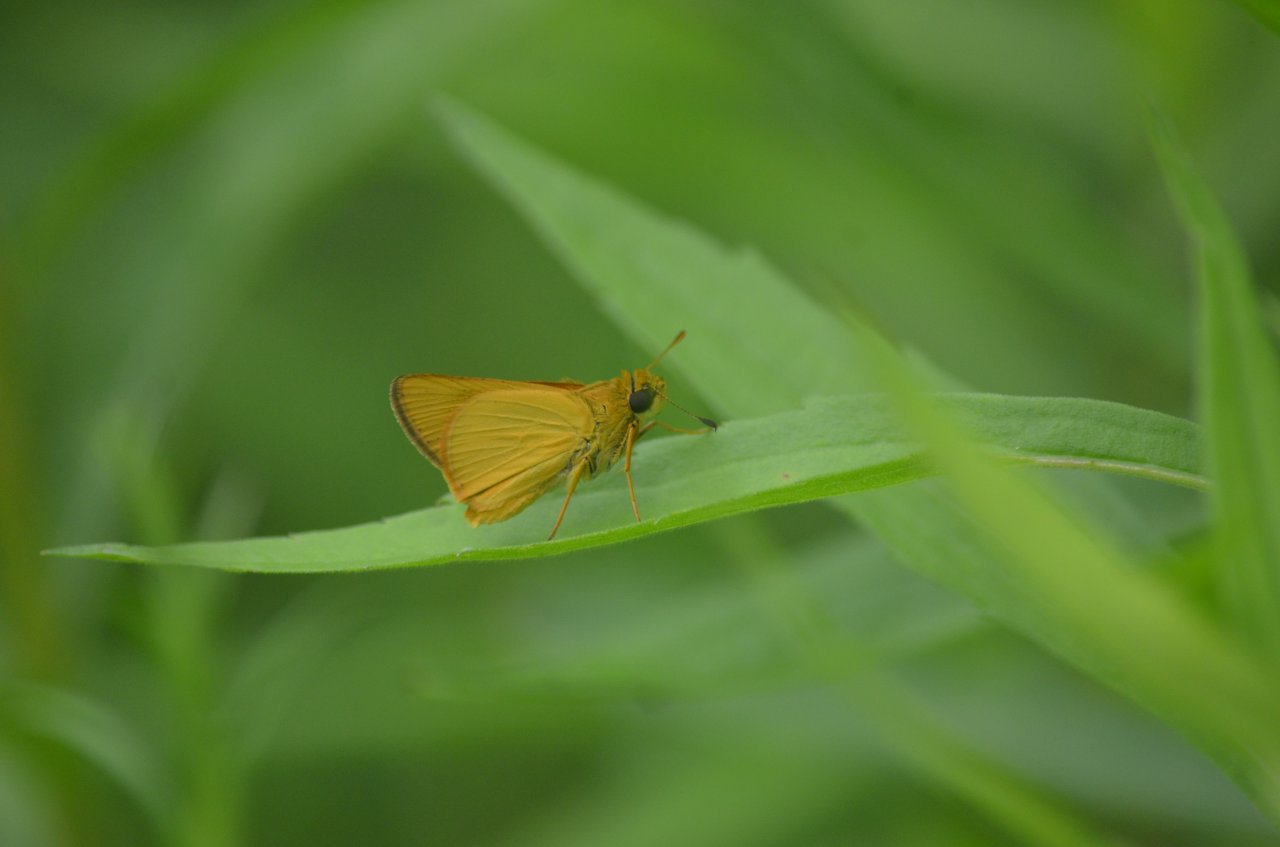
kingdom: Animalia
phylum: Arthropoda
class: Insecta
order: Lepidoptera
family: Hesperiidae
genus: Atrytone
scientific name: Atrytone delaware
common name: Delaware Skipper
